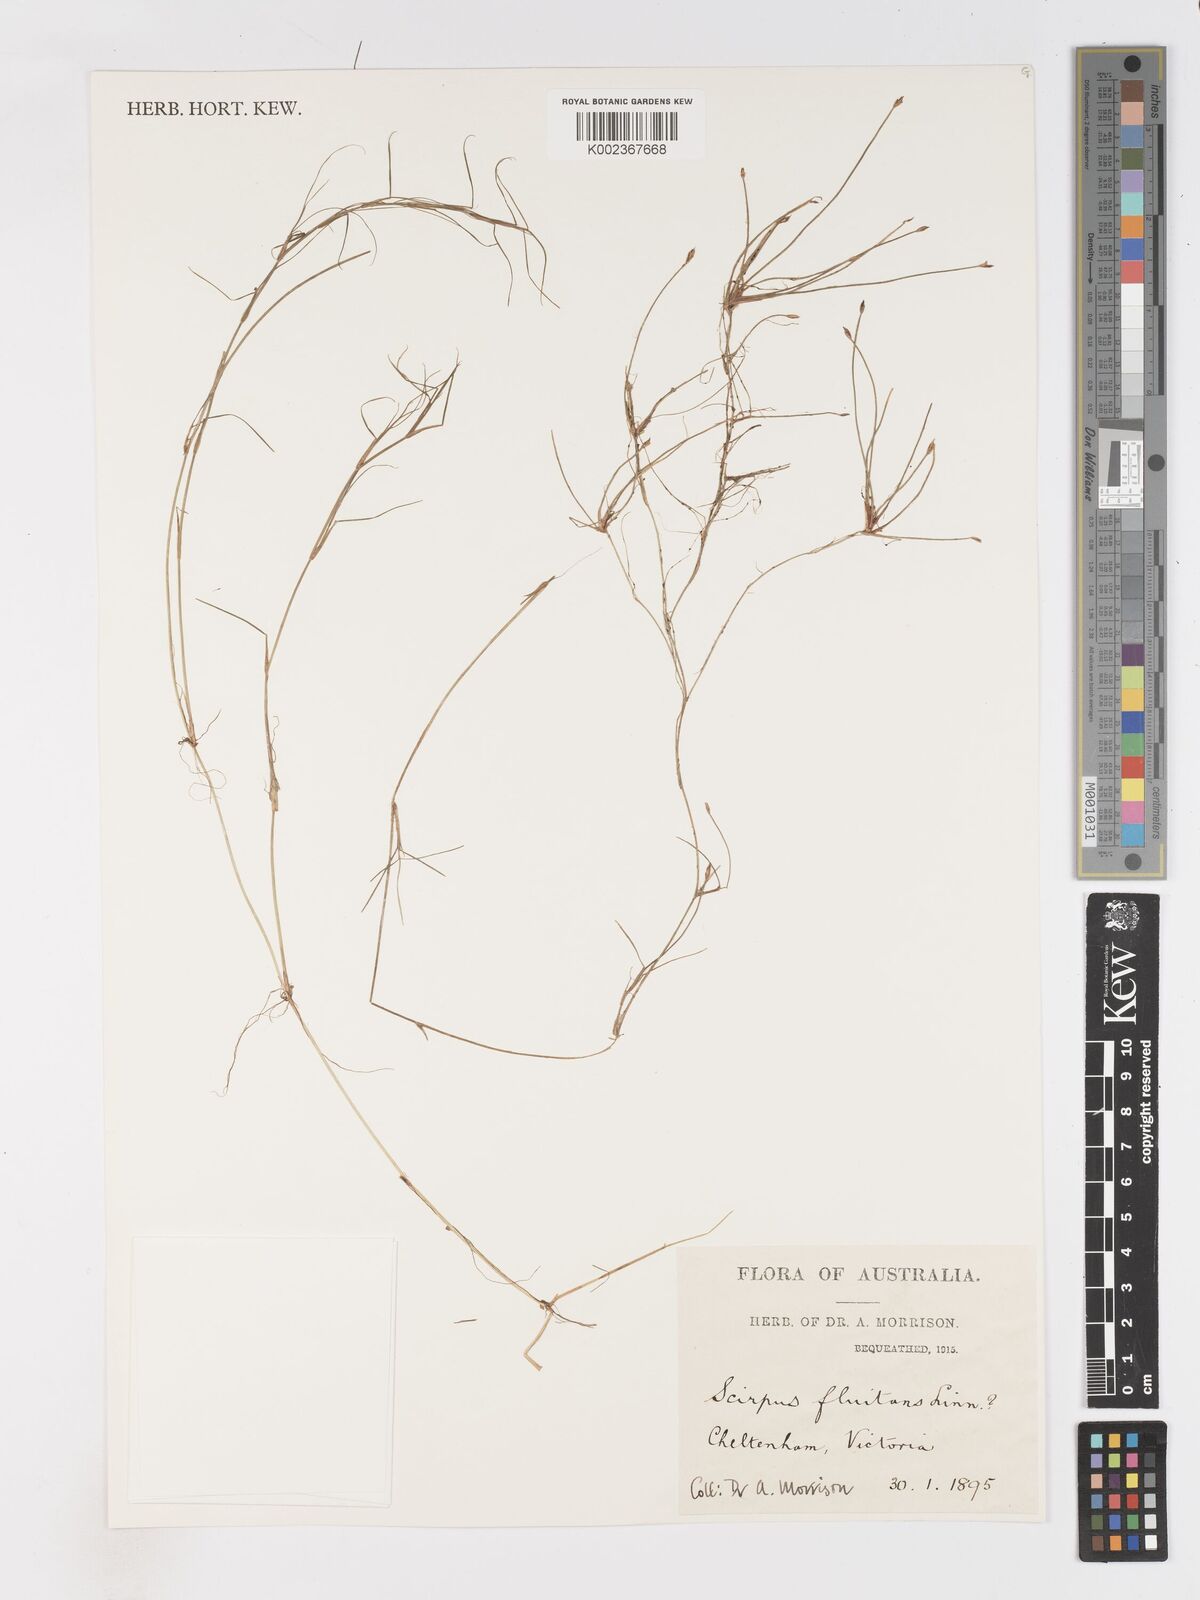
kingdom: Plantae
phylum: Tracheophyta
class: Liliopsida
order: Poales
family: Cyperaceae
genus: Isolepis
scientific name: Isolepis fluitans
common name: Floating club-rush
